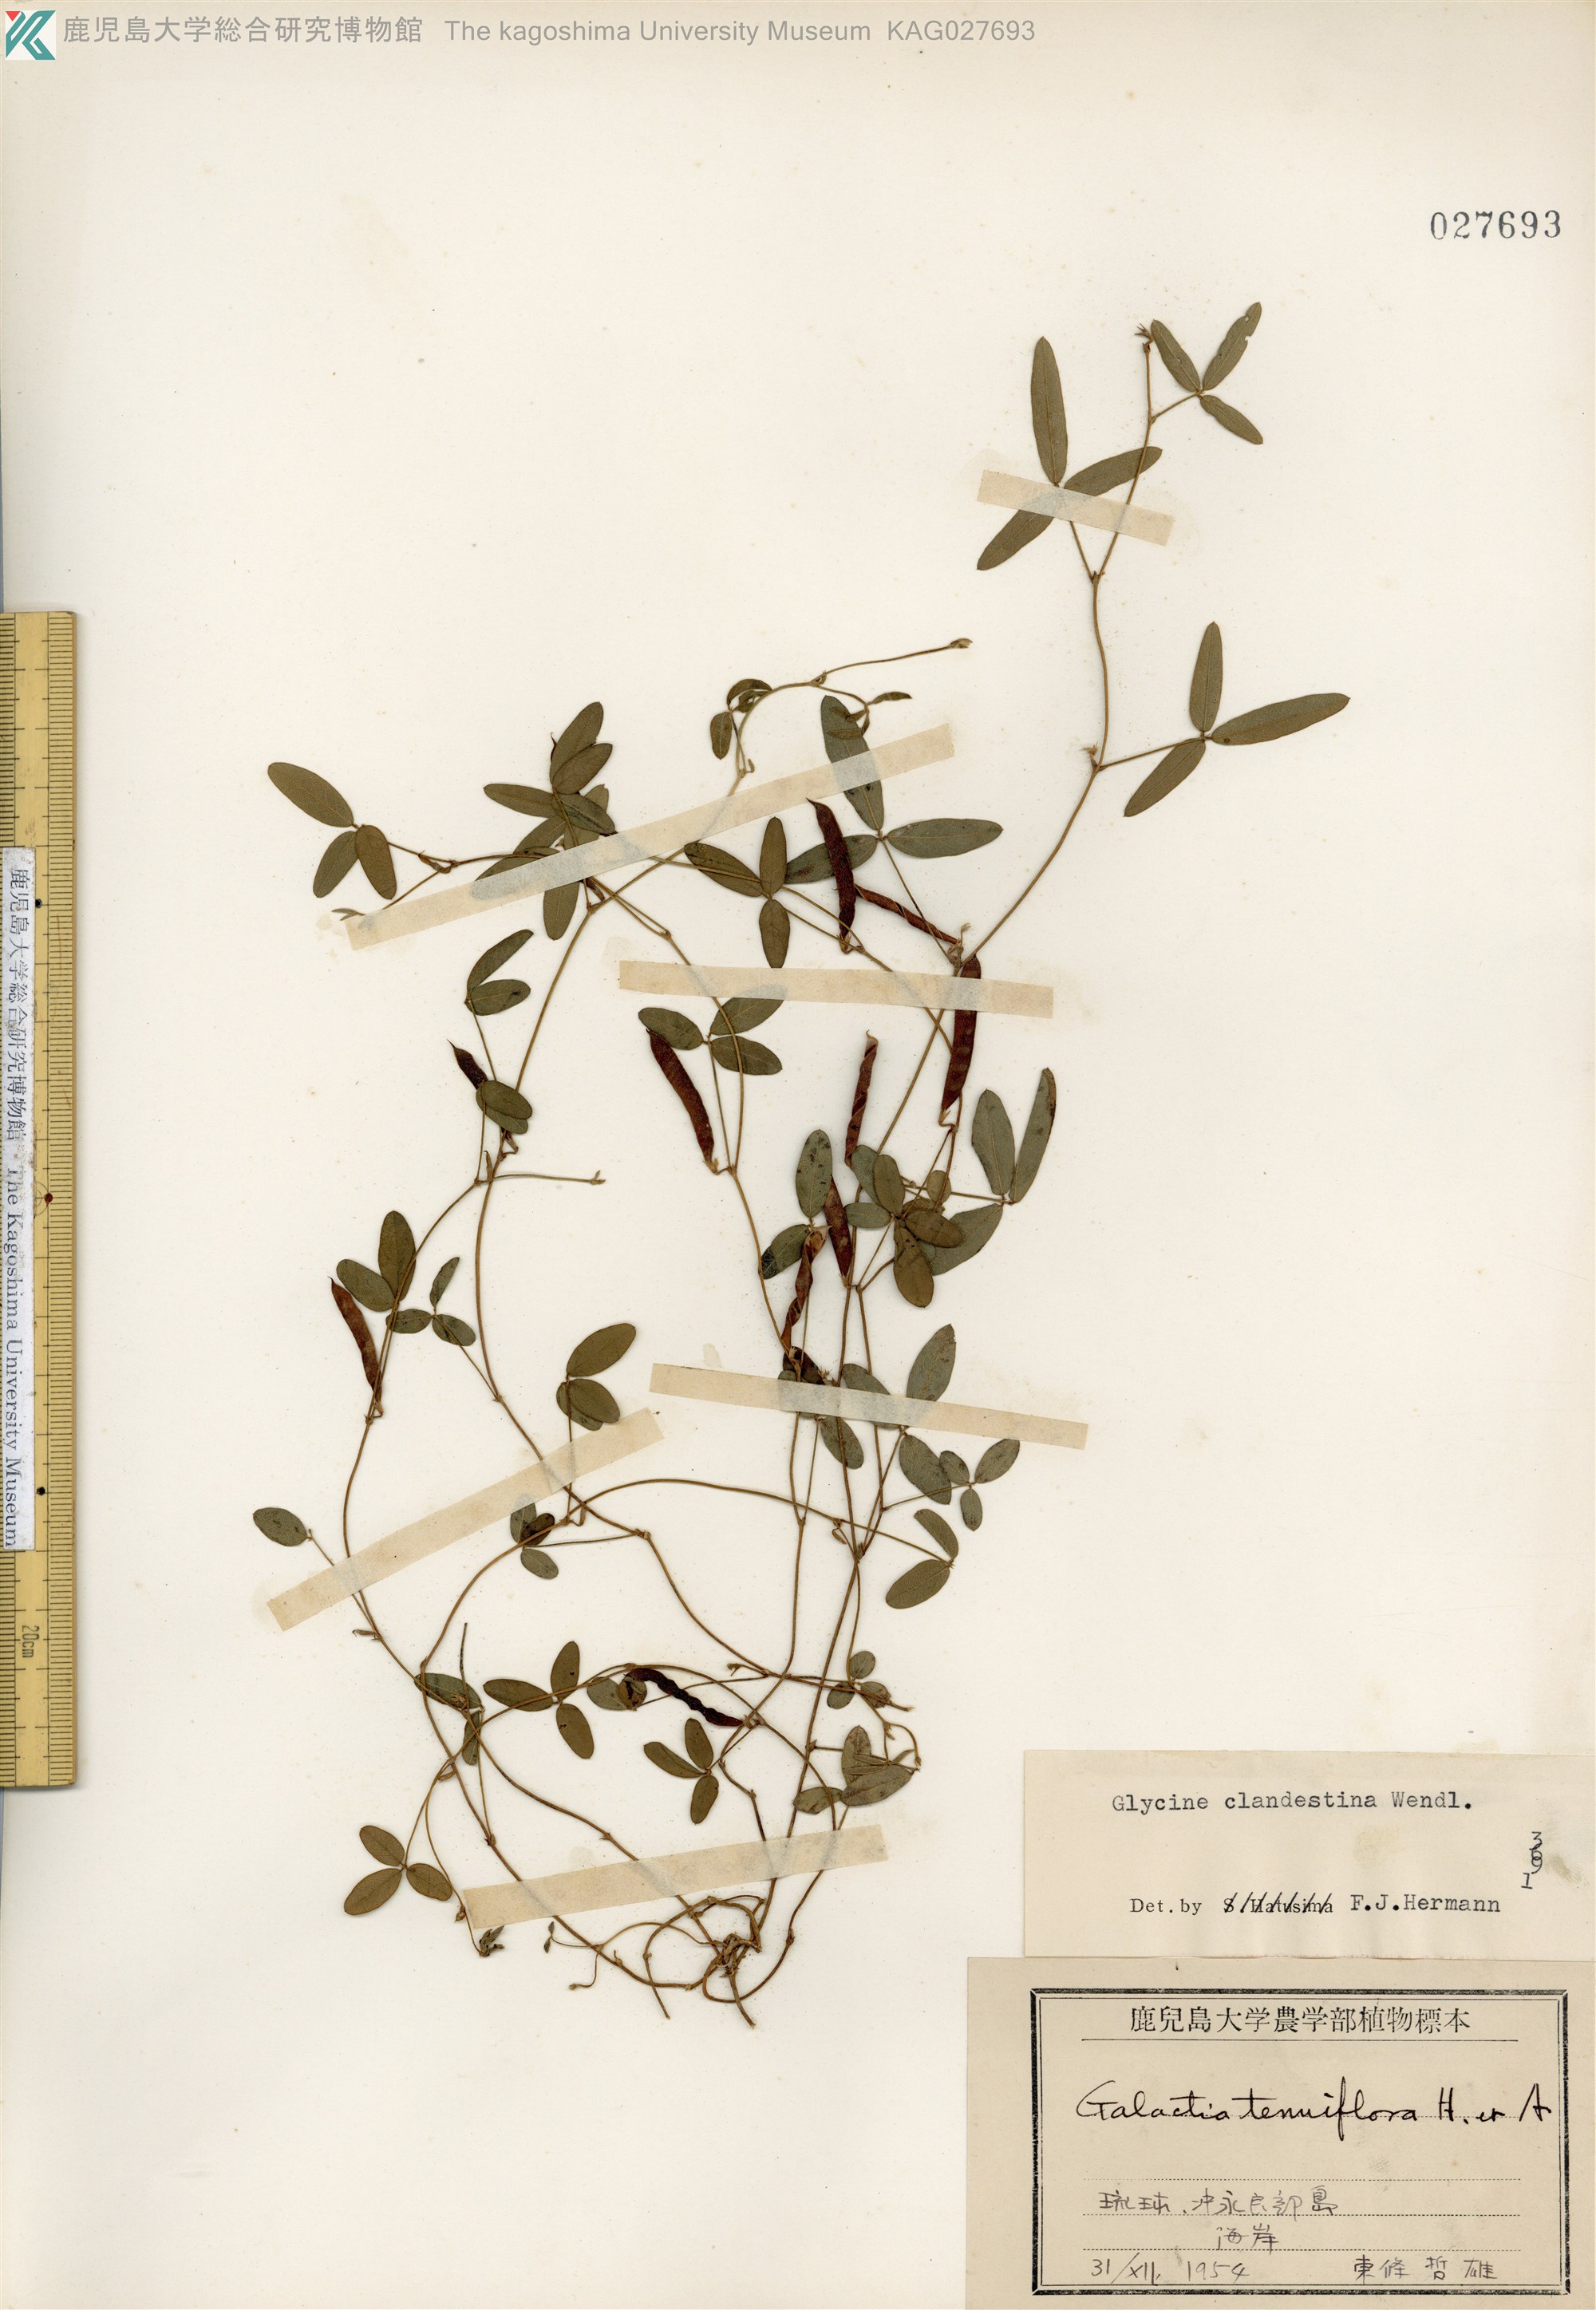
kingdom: Plantae
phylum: Tracheophyta
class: Magnoliopsida
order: Fabales
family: Fabaceae
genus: Glycine
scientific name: Glycine tabacina
